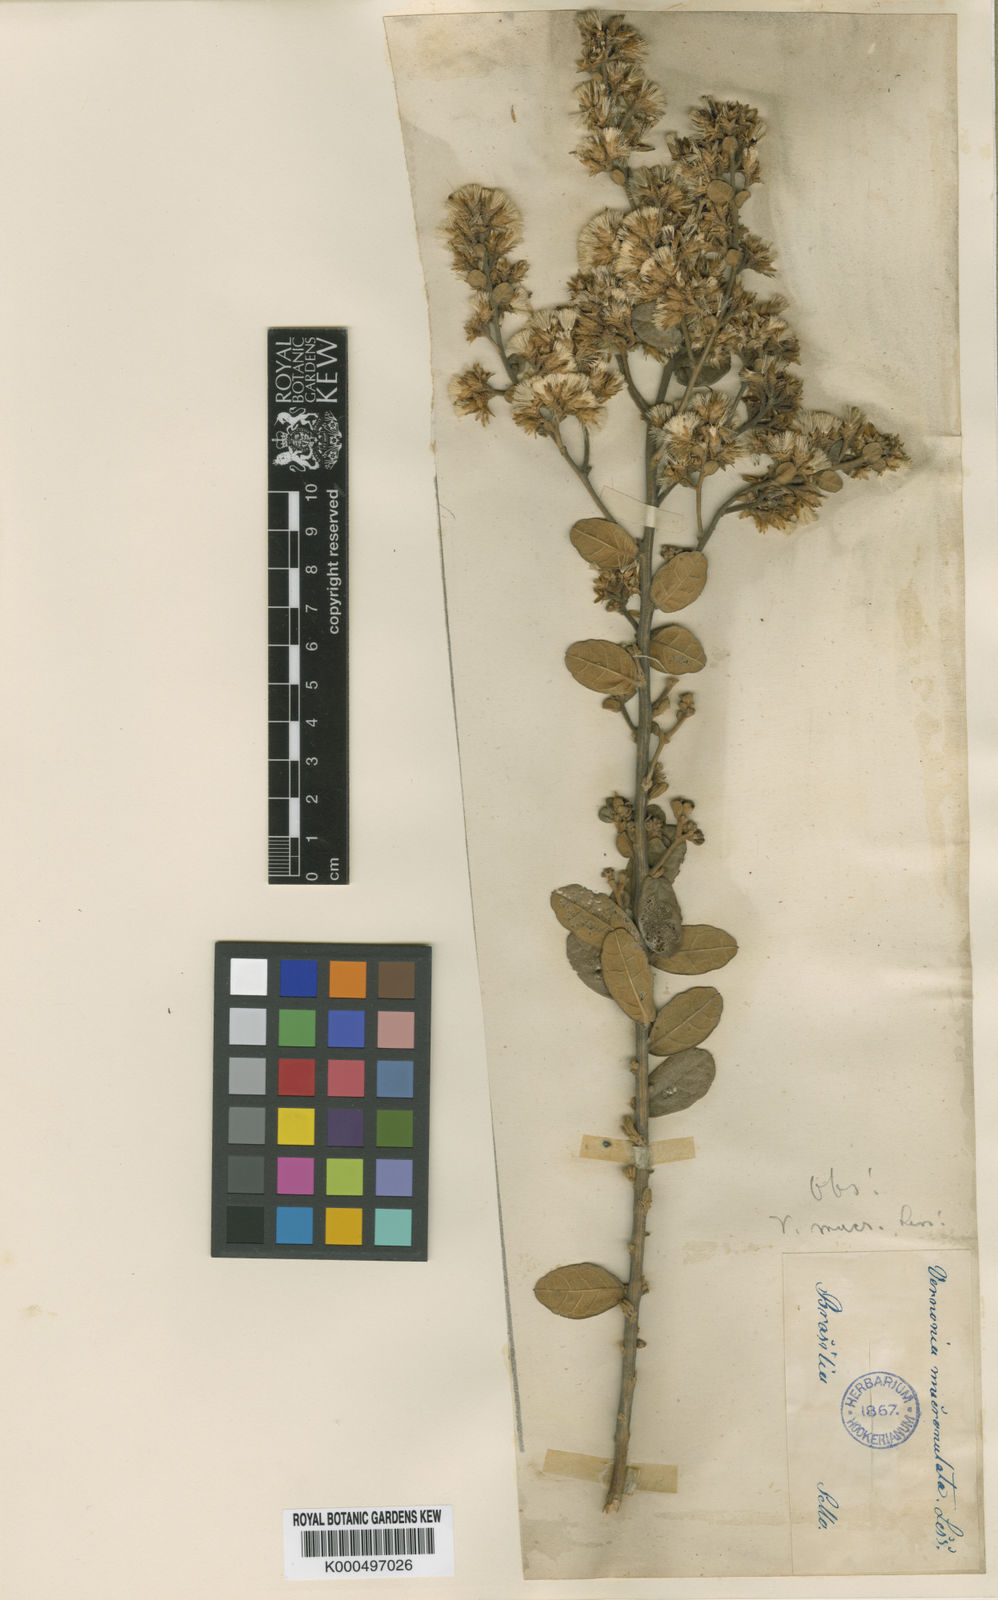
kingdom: Plantae
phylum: Tracheophyta
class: Magnoliopsida
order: Asterales
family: Asteraceae
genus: Vernonanthura
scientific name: Vernonanthura mucronulata
